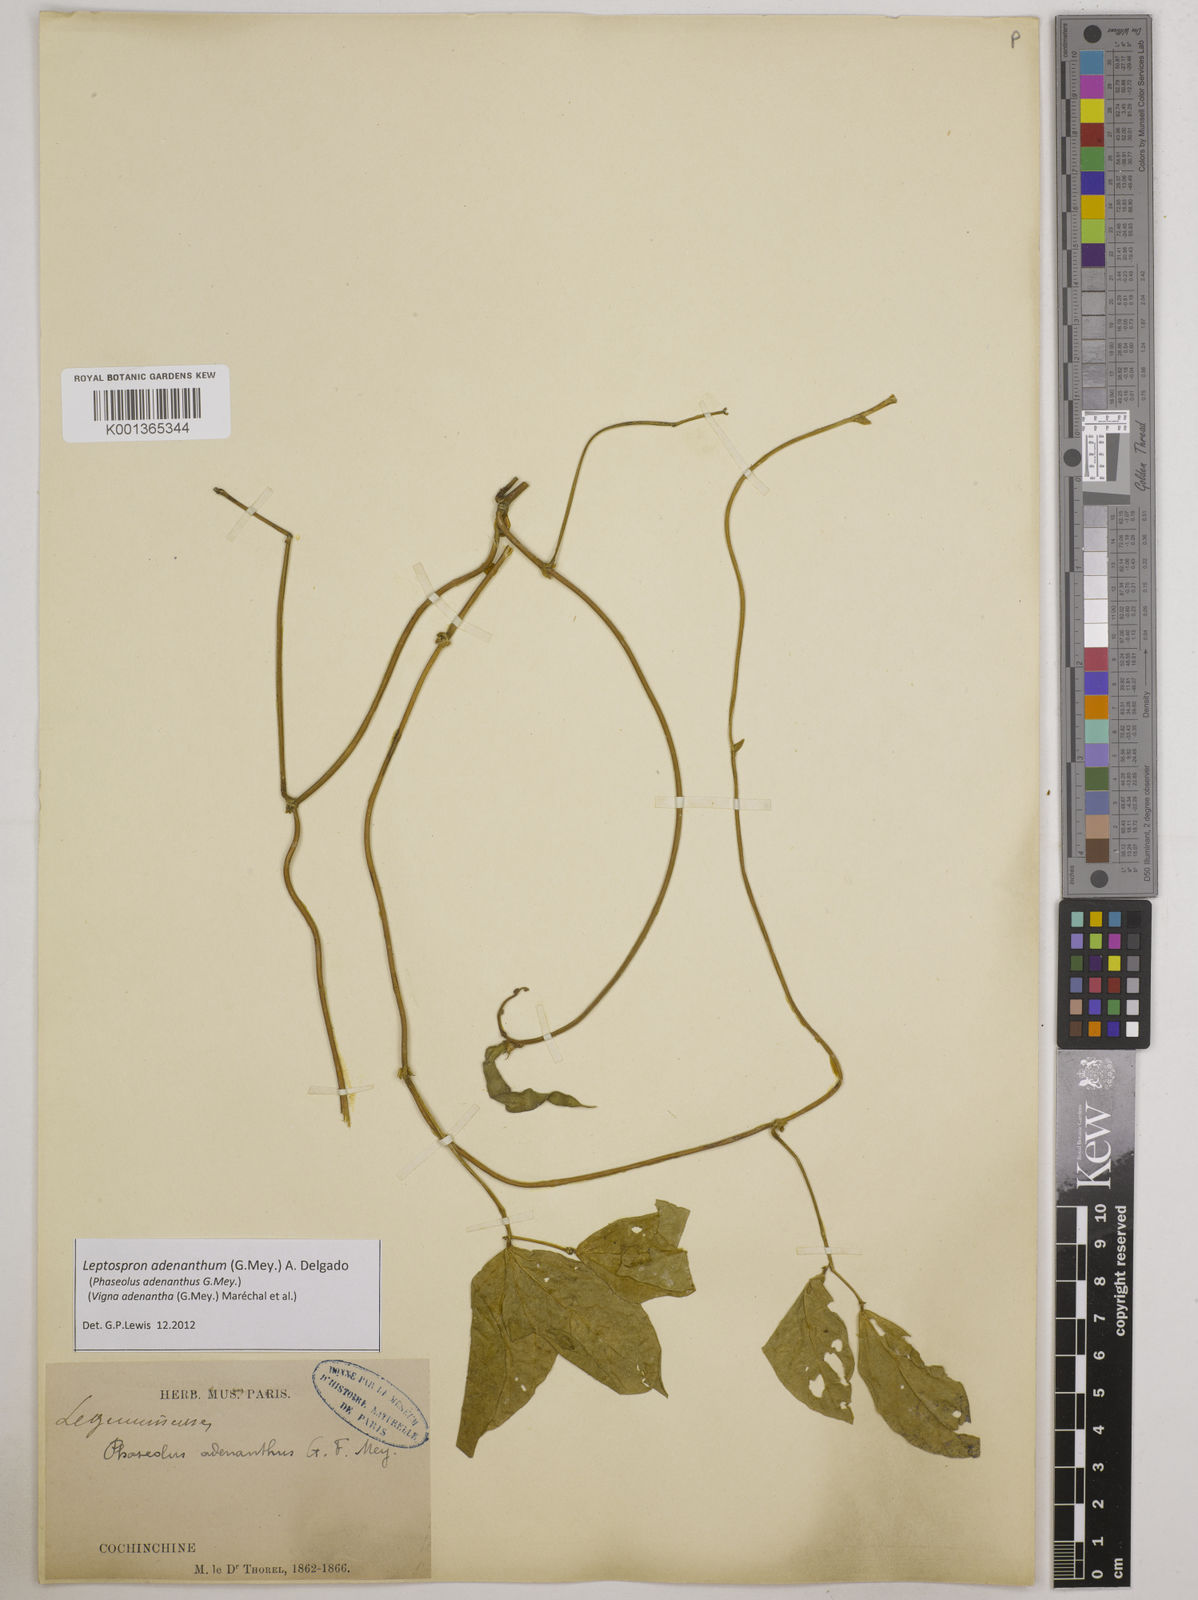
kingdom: Plantae
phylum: Tracheophyta
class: Magnoliopsida
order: Fabales
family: Fabaceae
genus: Leptospron
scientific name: Leptospron adenanthum
